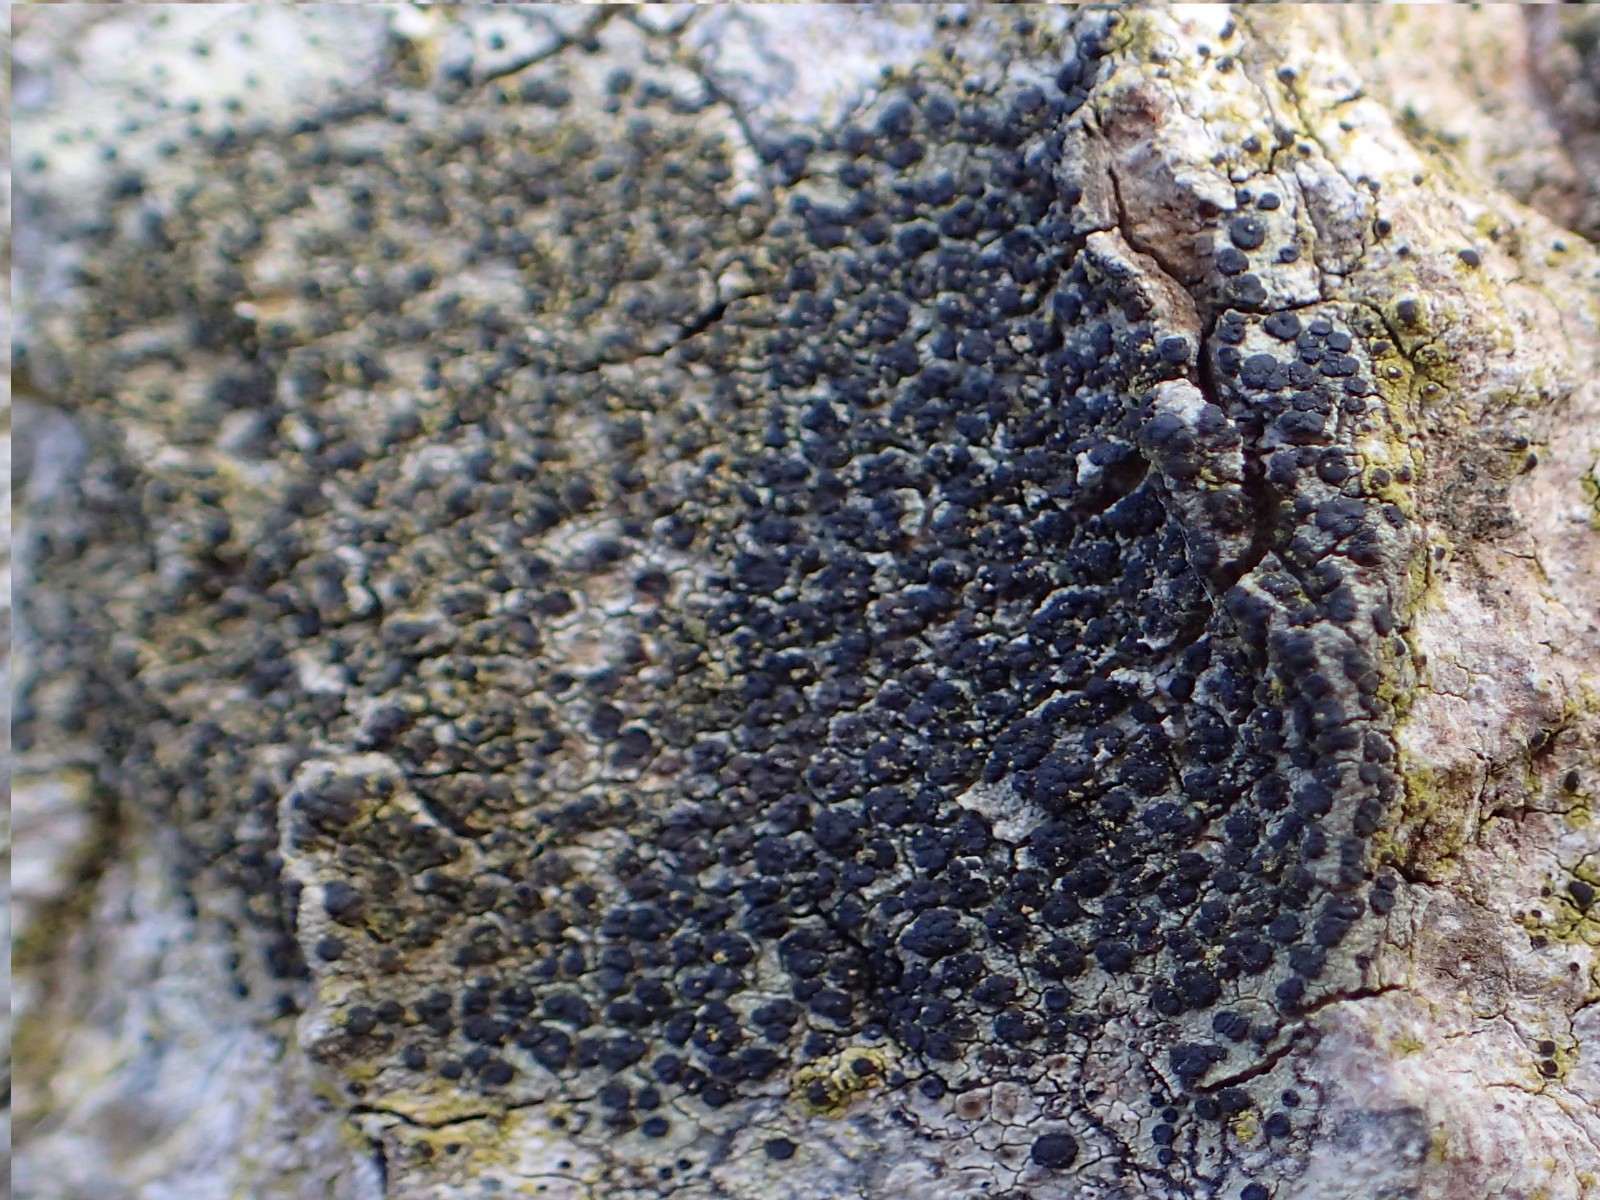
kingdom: Fungi
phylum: Ascomycota
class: Lecanoromycetes
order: Lecanorales
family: Lecanoraceae
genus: Lecidella
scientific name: Lecidella elaeochroma
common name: grågrøn skivelav
